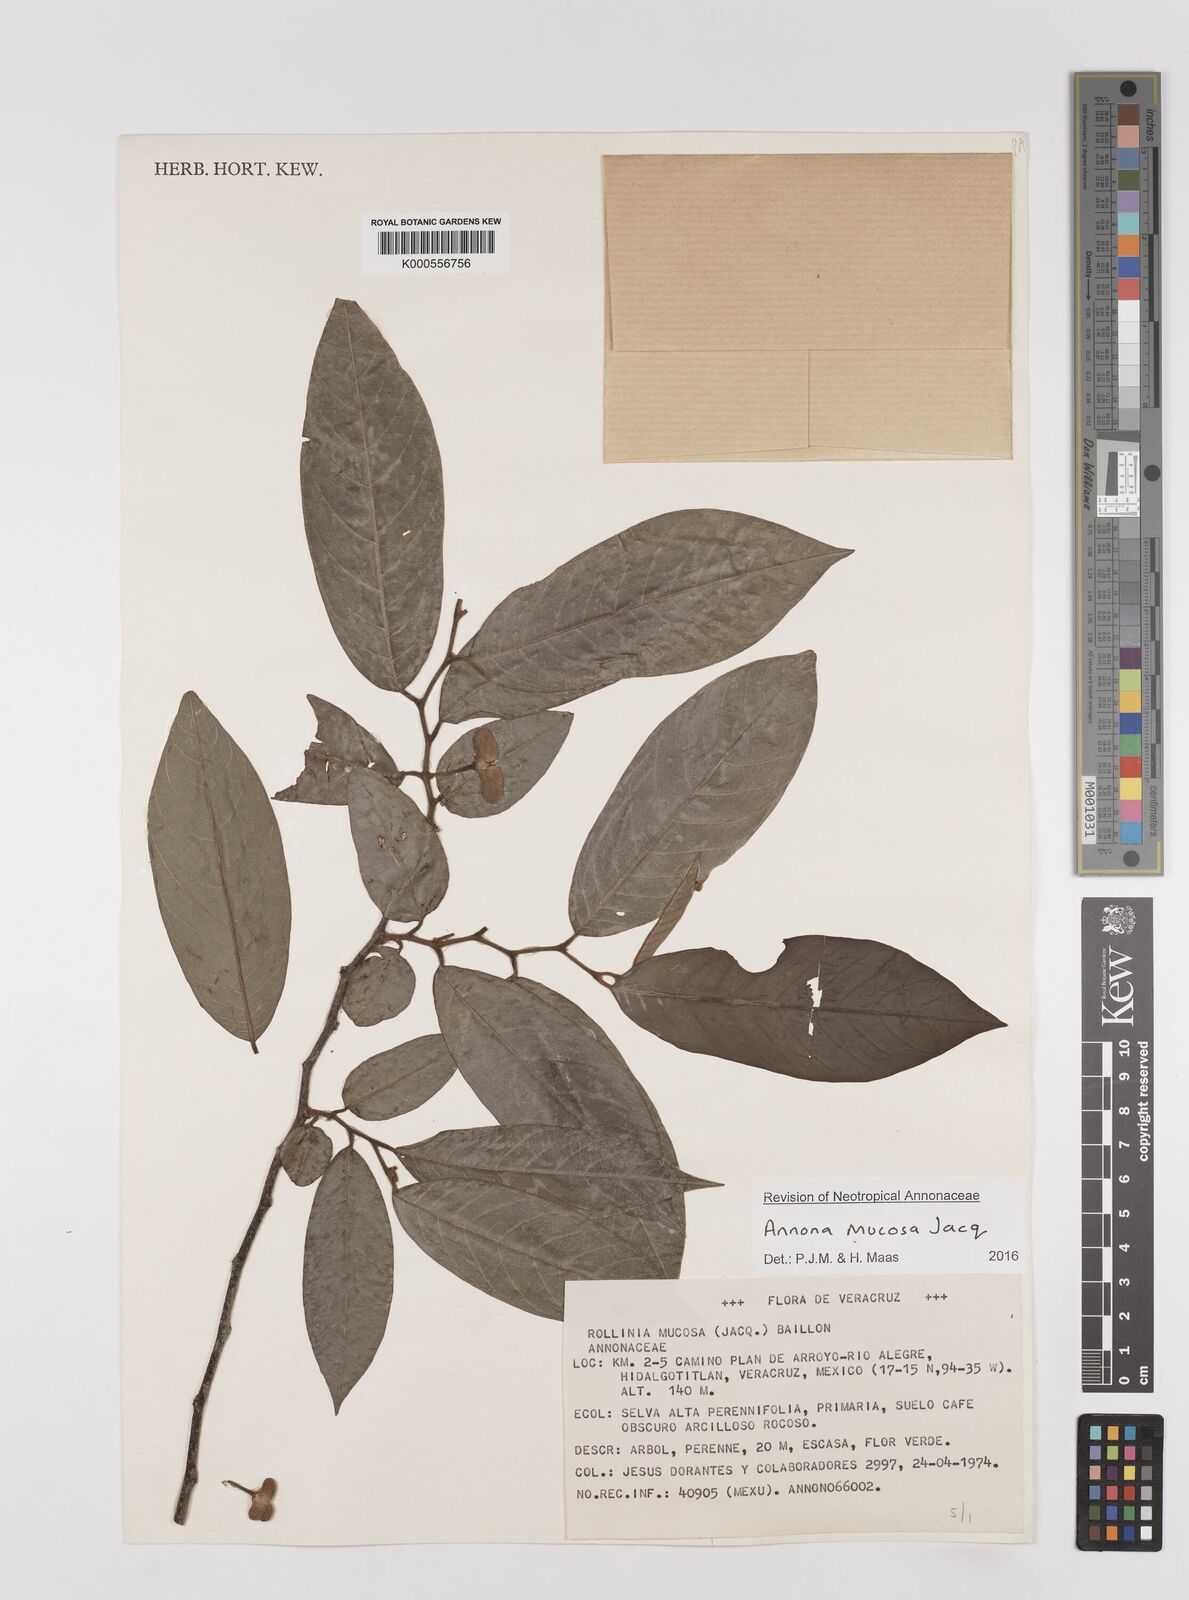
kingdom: Plantae
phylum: Tracheophyta
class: Magnoliopsida
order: Magnoliales
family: Annonaceae
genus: Annona
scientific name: Annona mucosa
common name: Sugar apple
